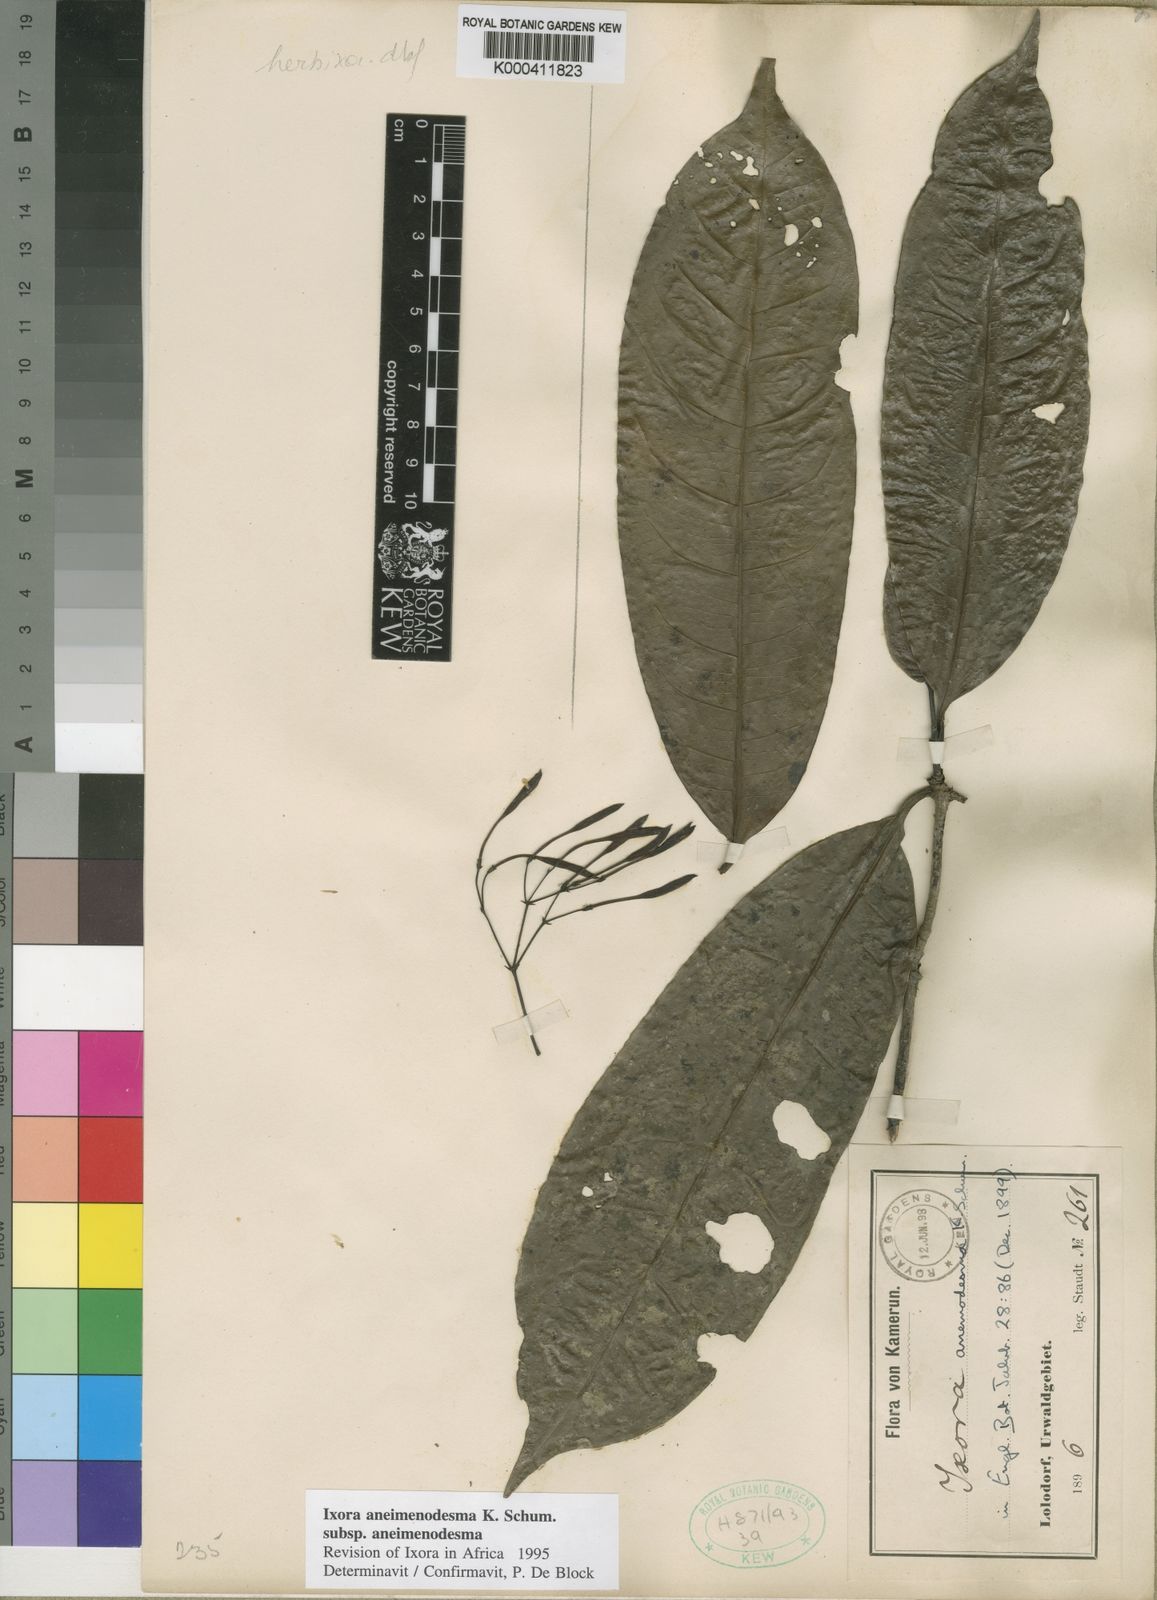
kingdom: Plantae
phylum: Tracheophyta
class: Magnoliopsida
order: Gentianales
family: Rubiaceae
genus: Ixora
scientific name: Ixora aneimenodesma
